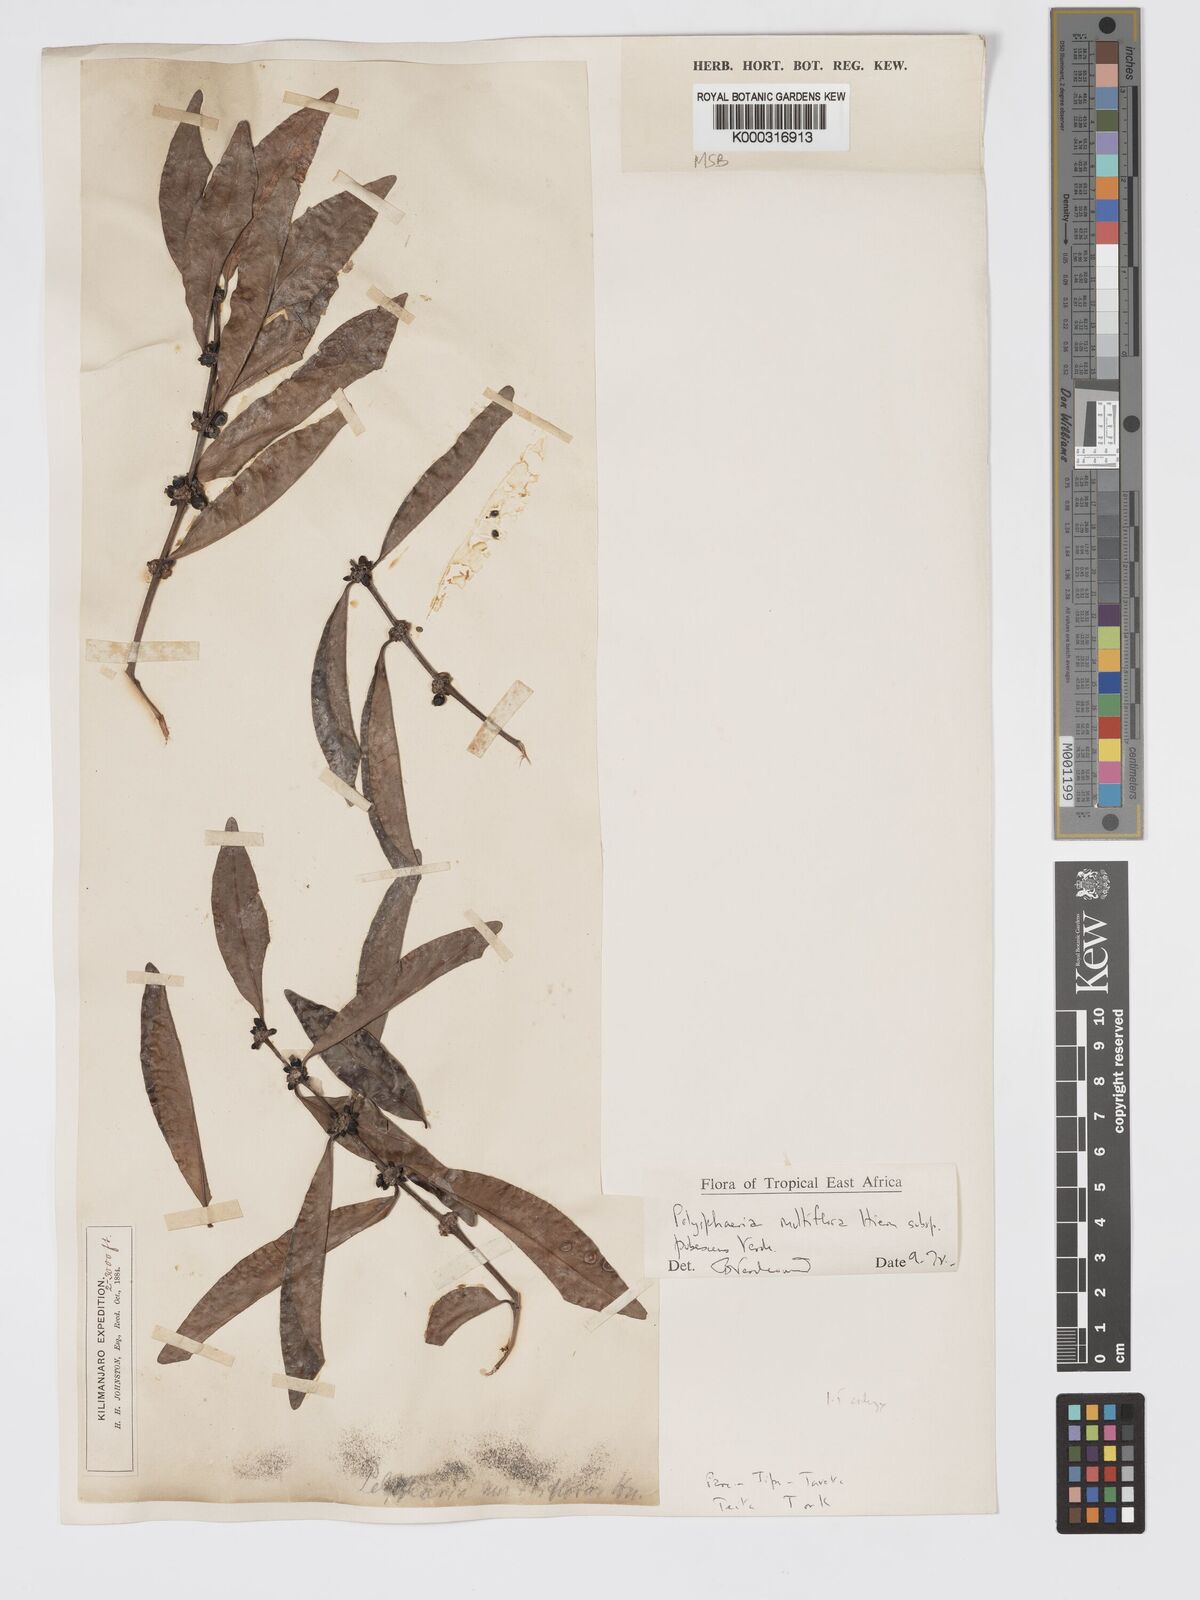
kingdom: Plantae
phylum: Tracheophyta
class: Magnoliopsida
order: Gentianales
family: Rubiaceae
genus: Polysphaeria
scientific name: Polysphaeria multiflora
